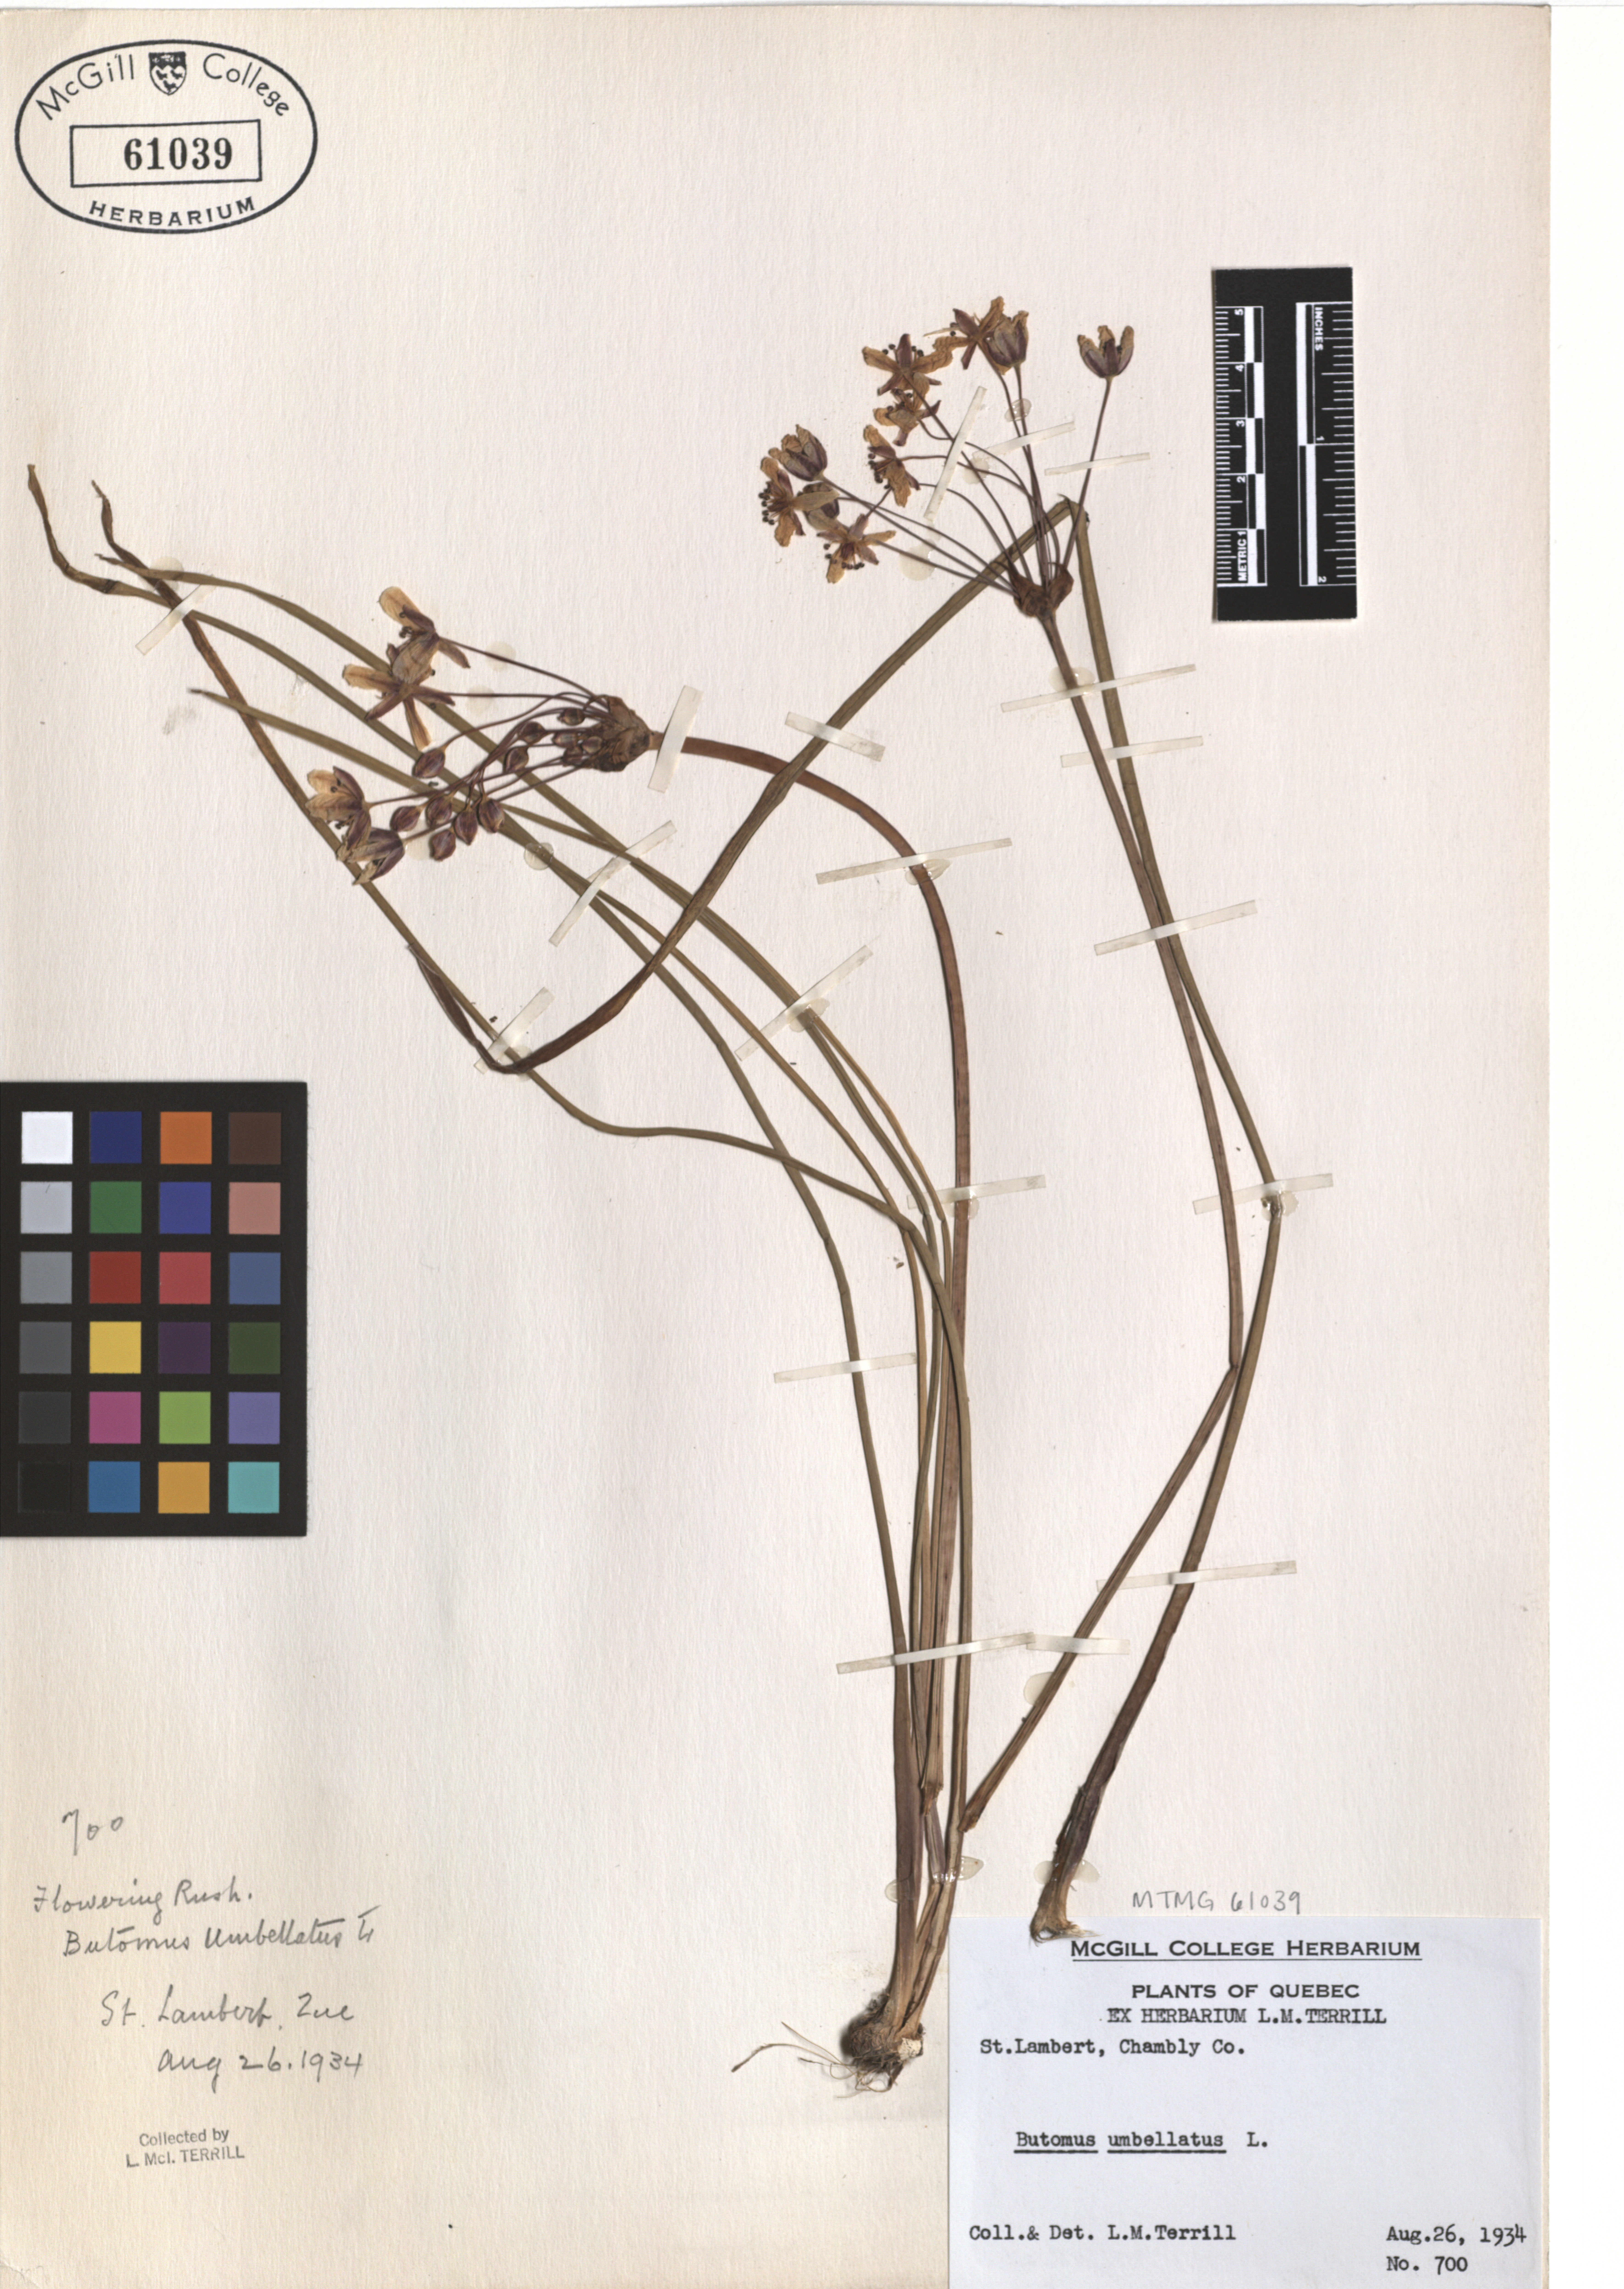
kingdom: Plantae
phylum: Tracheophyta
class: Liliopsida
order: Alismatales
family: Butomaceae
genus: Butomus
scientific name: Butomus umbellatus
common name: Flowering-rush
